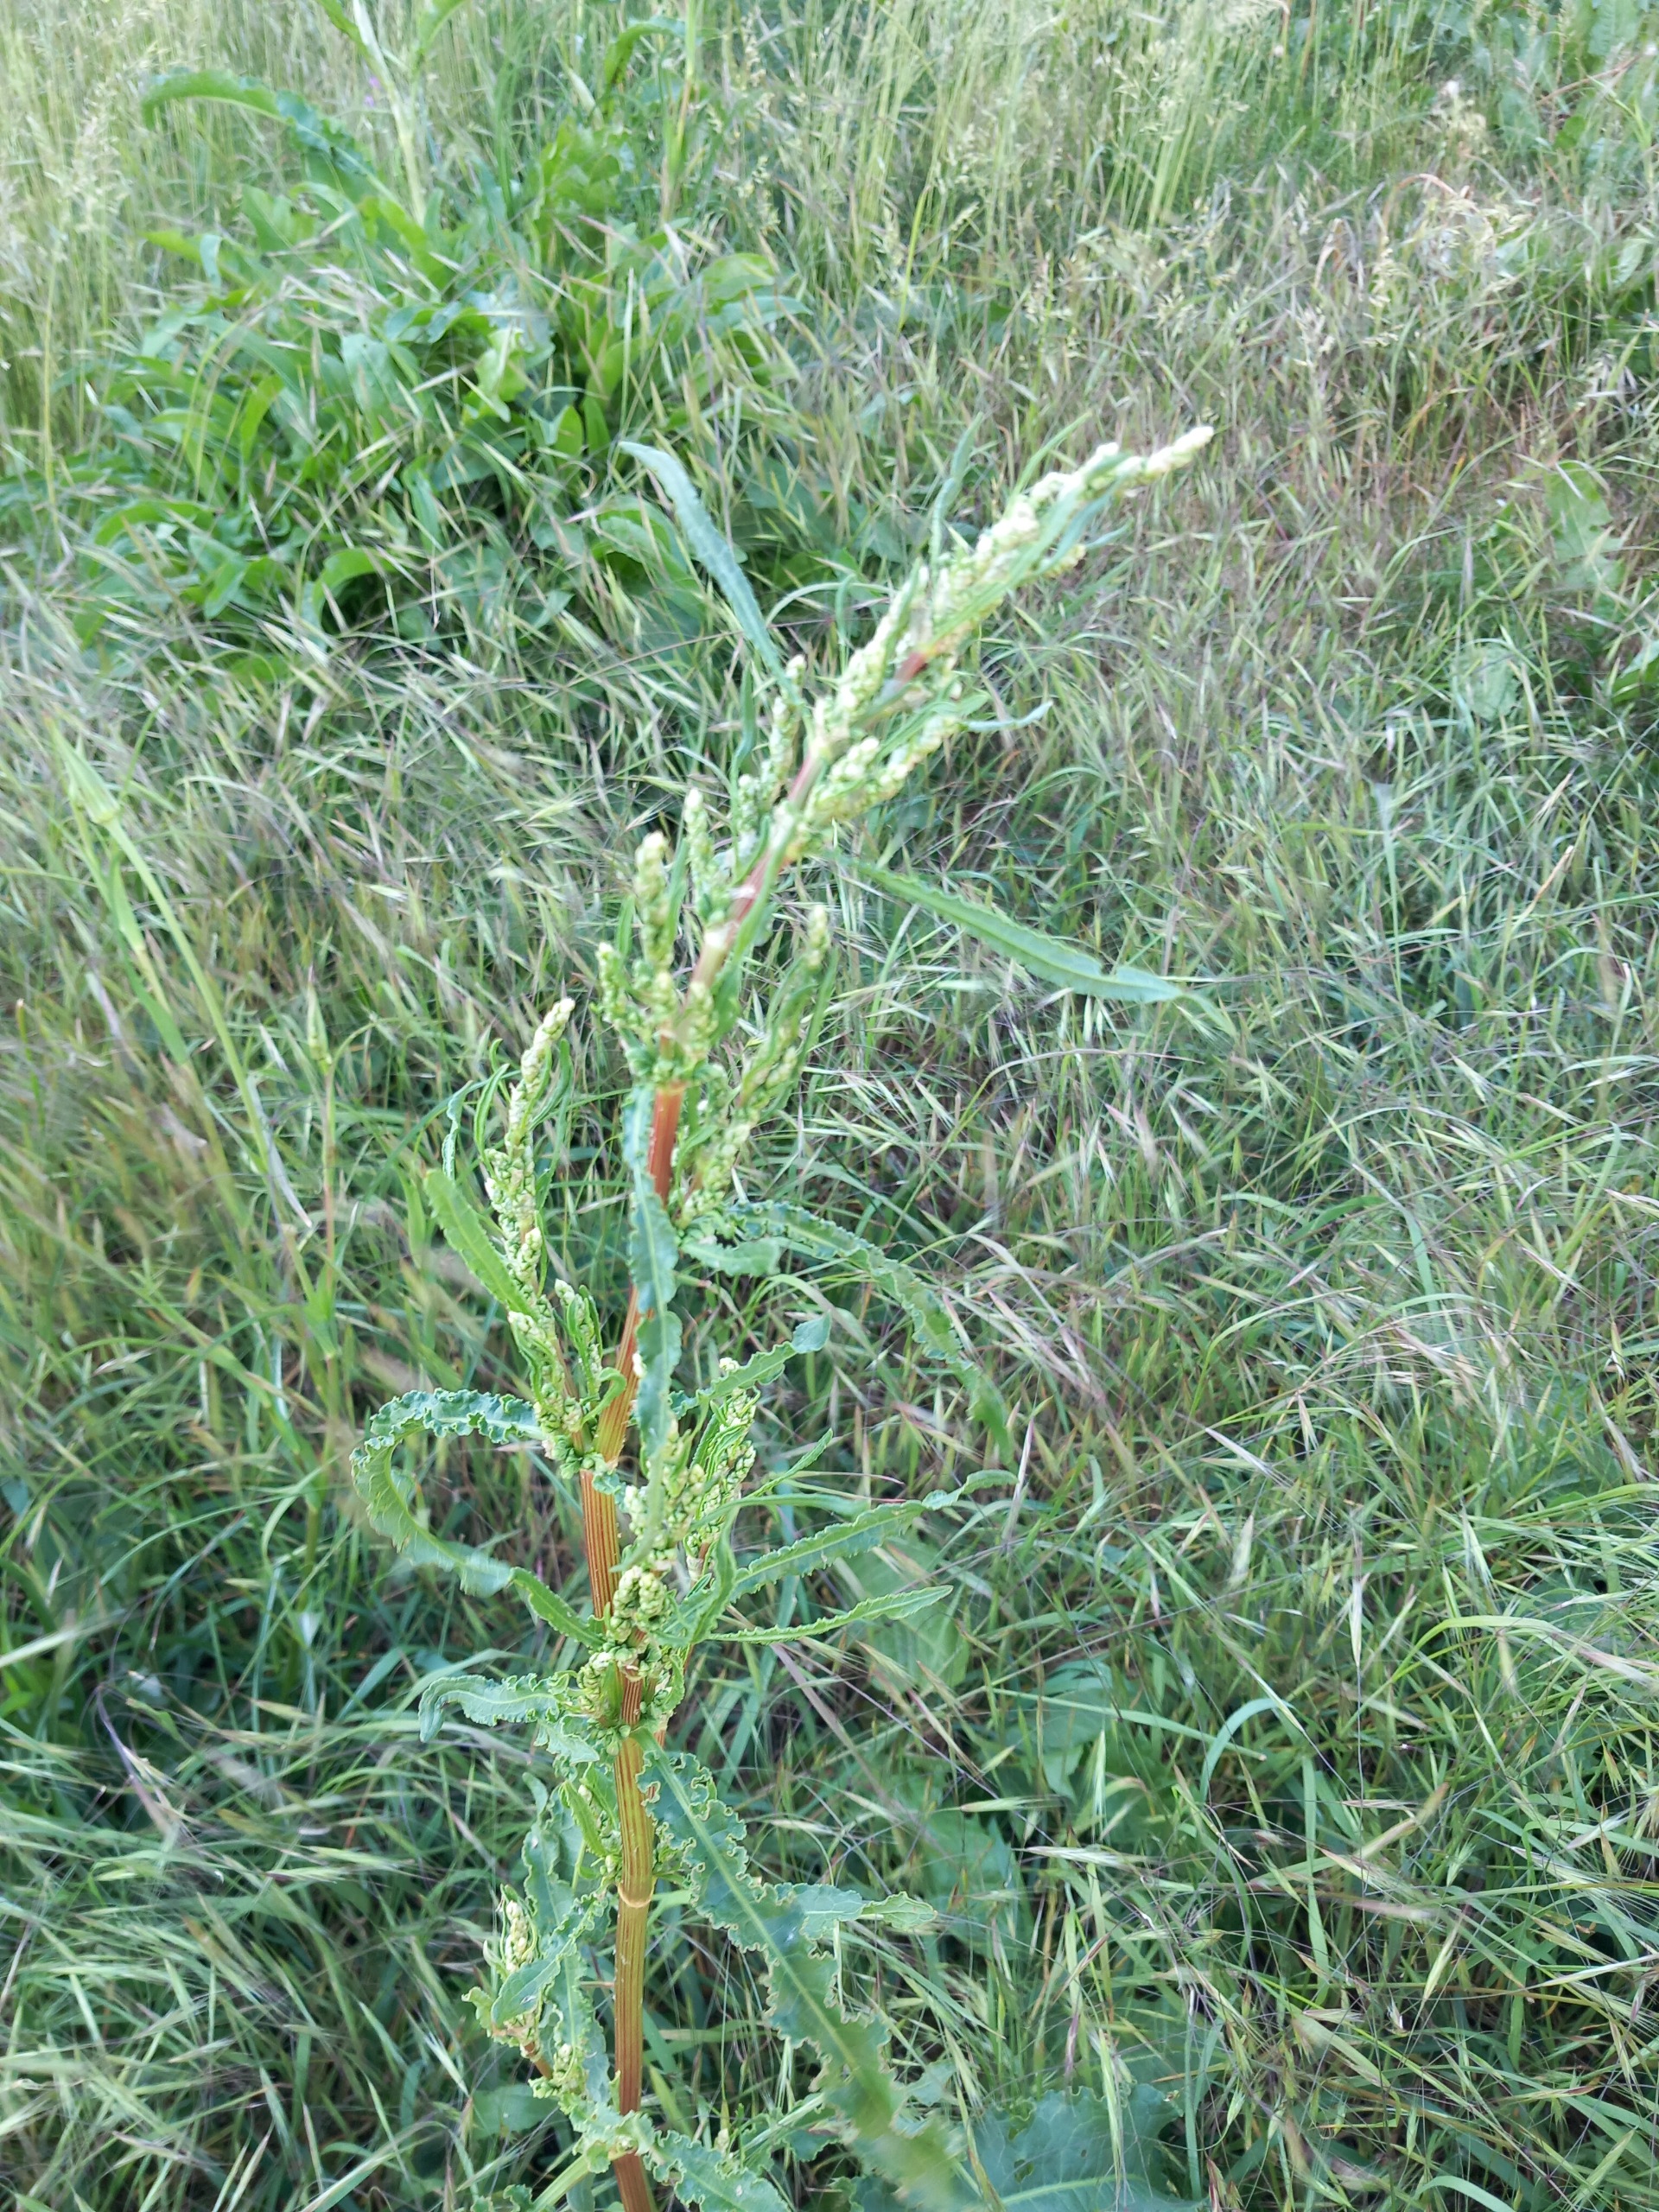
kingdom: Plantae
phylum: Tracheophyta
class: Magnoliopsida
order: Caryophyllales
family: Polygonaceae
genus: Rumex
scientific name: Rumex crispus
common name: Kruset skræppe
